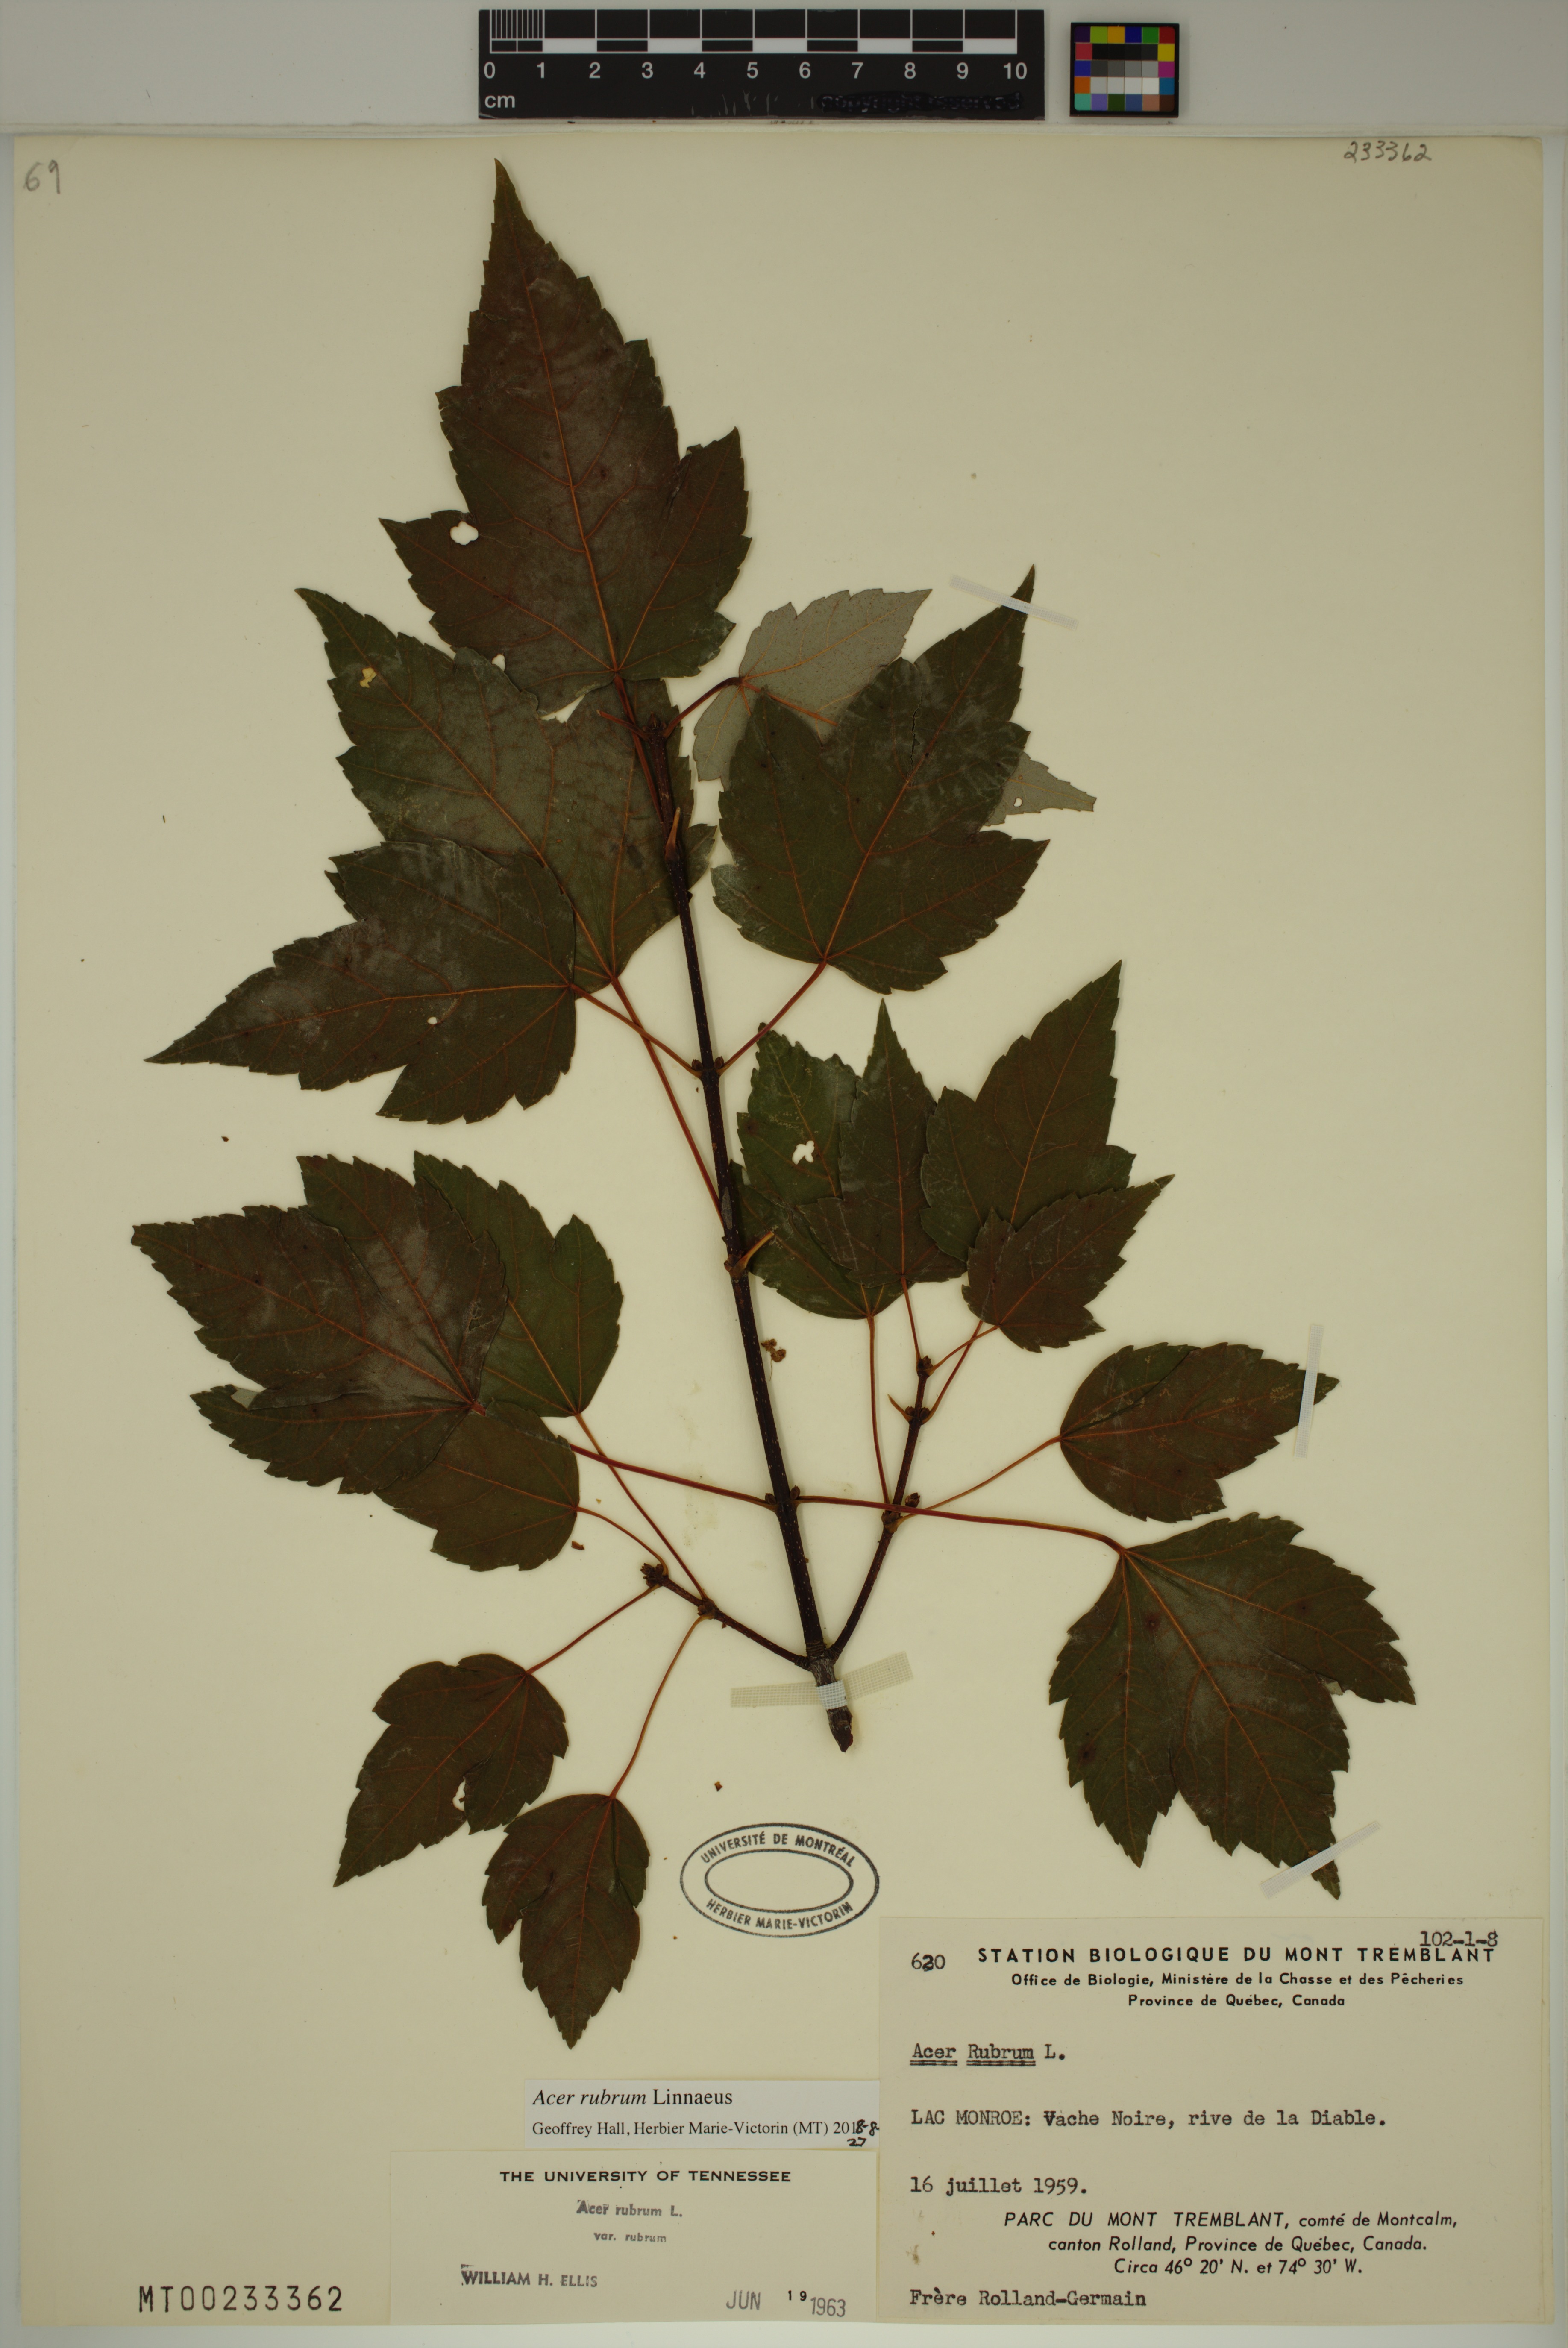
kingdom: Plantae
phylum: Tracheophyta
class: Magnoliopsida
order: Sapindales
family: Sapindaceae
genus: Acer
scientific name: Acer rubrum
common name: Red maple
